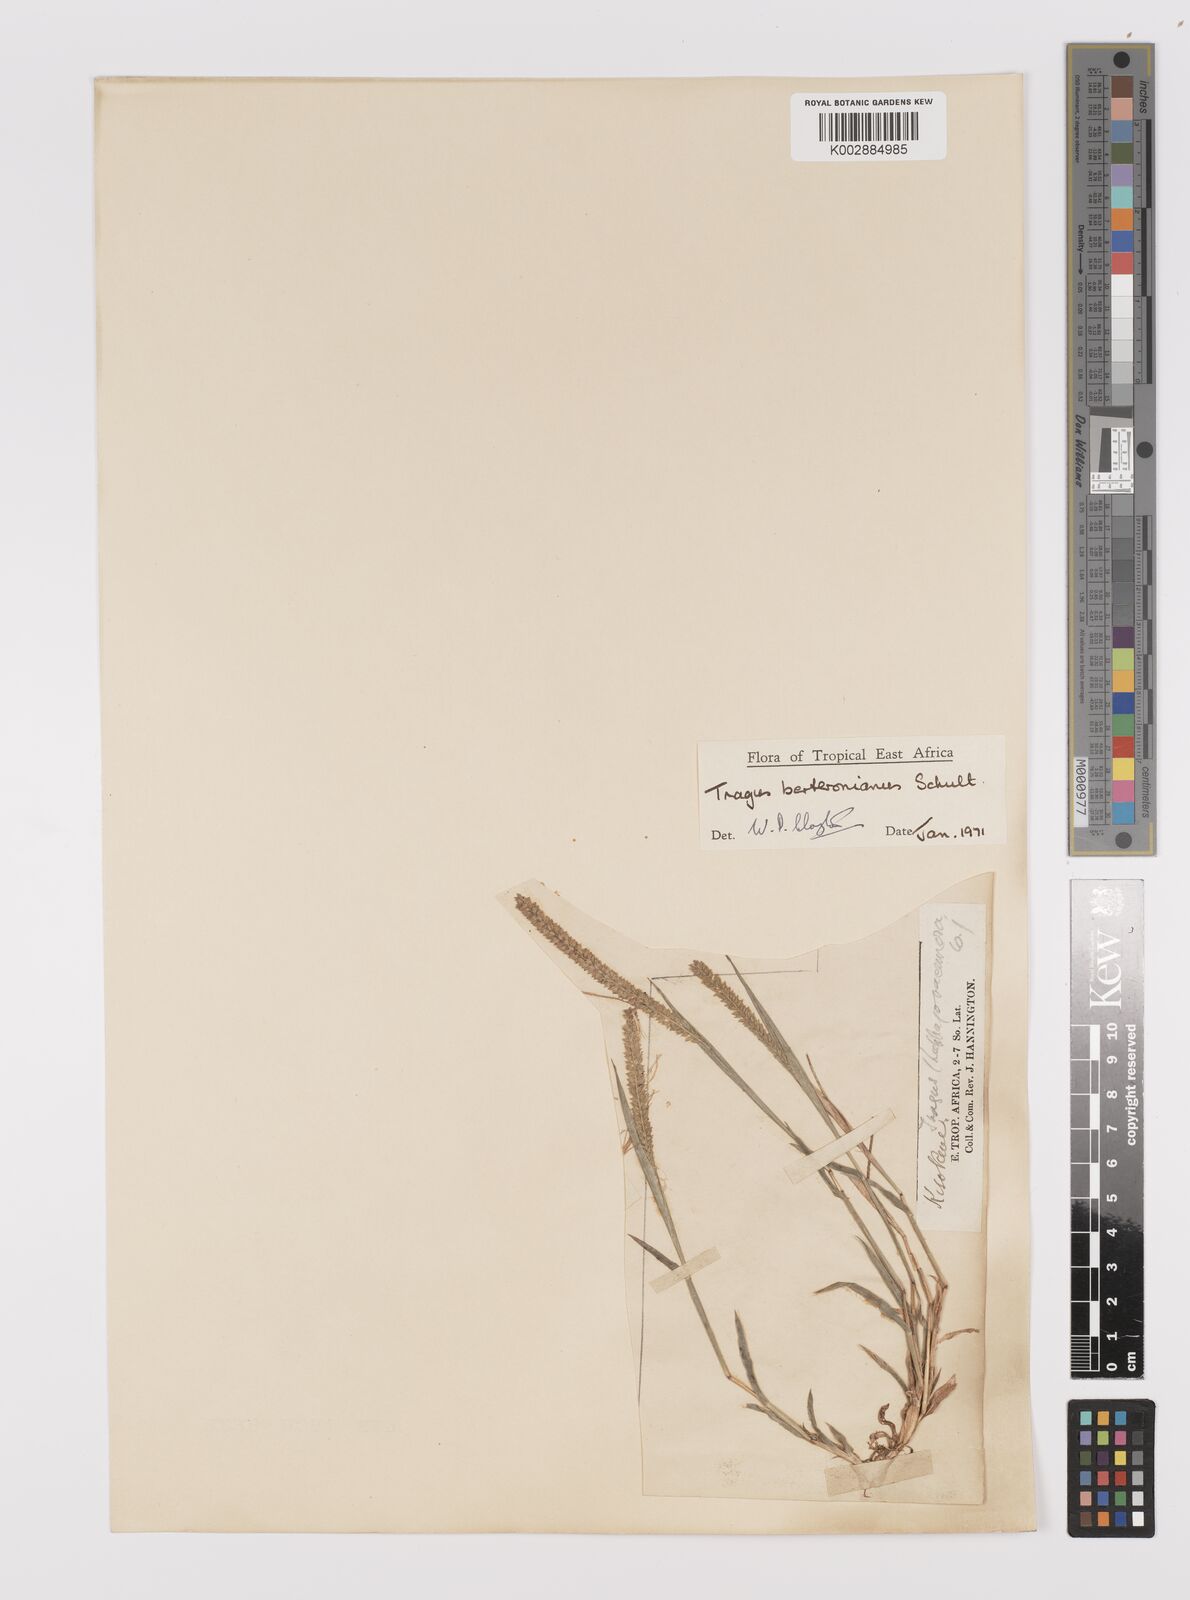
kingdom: Plantae
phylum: Tracheophyta
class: Liliopsida
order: Poales
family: Poaceae
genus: Tragus
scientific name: Tragus berteronianus
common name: African bur-grass
